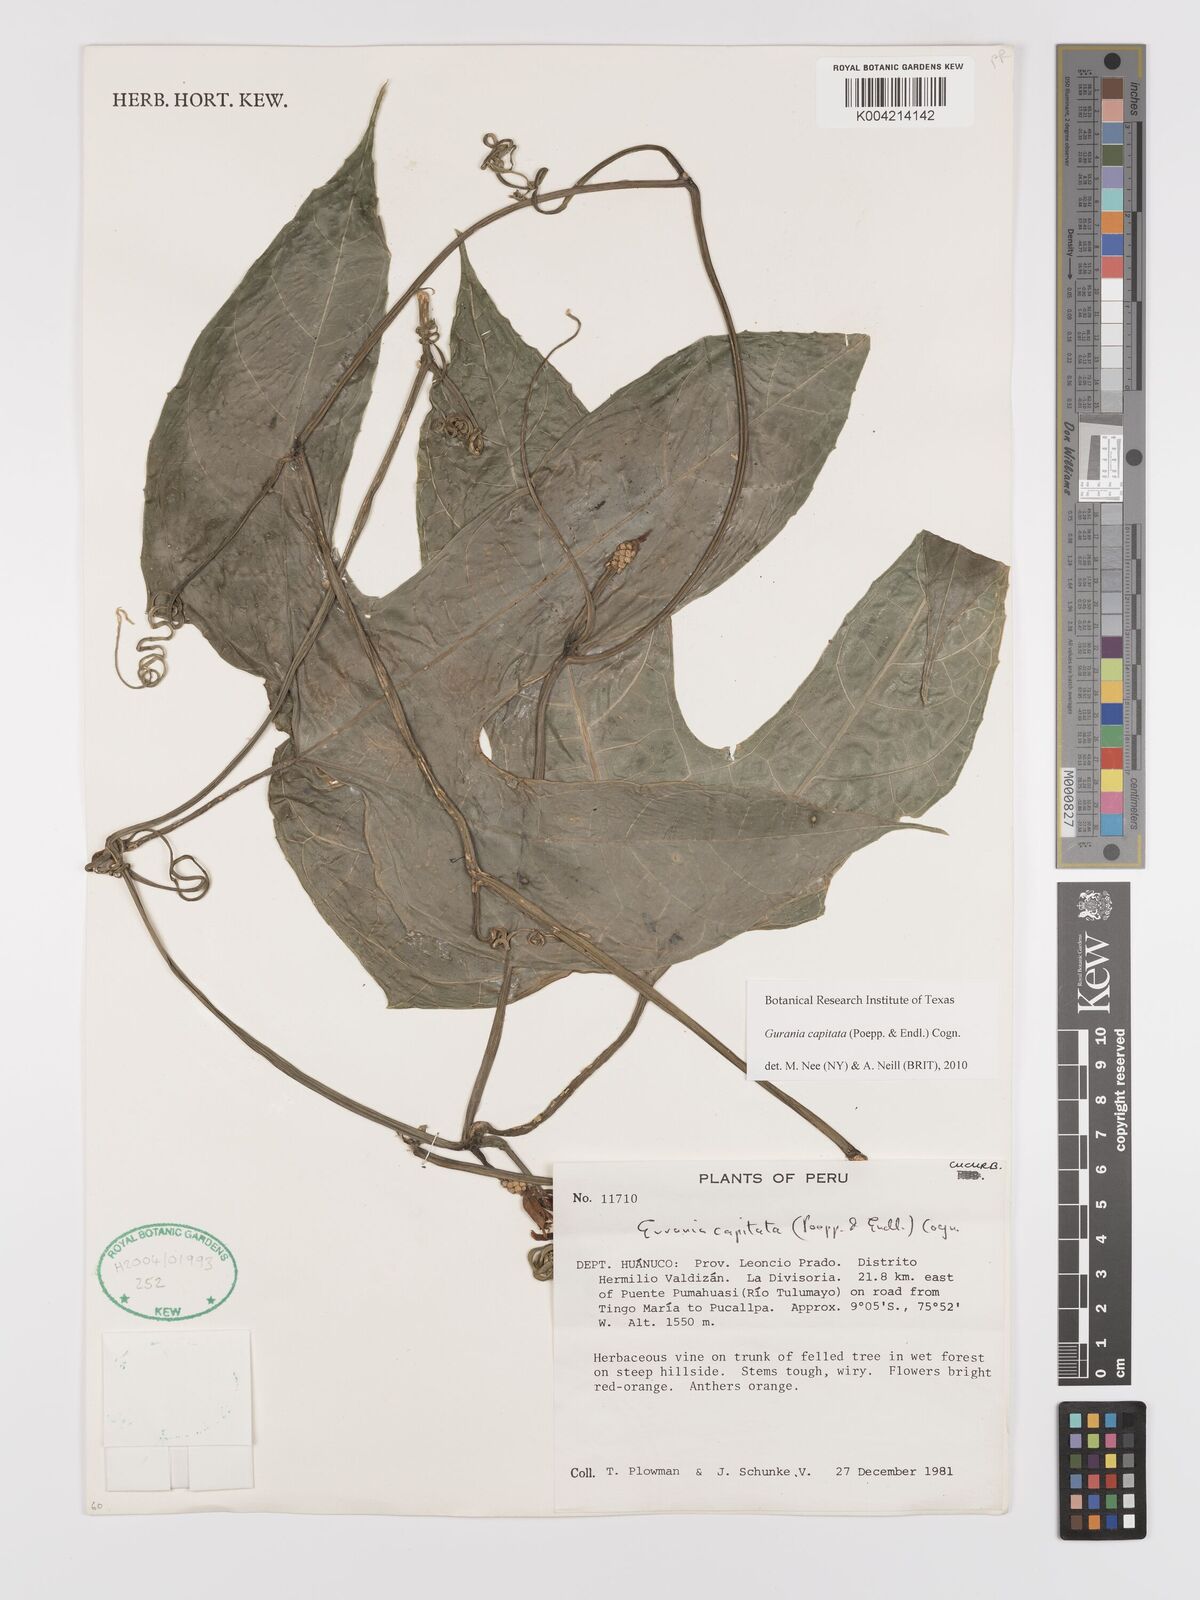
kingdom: Plantae
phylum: Tracheophyta
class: Magnoliopsida
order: Cucurbitales
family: Cucurbitaceae
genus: Gurania
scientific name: Gurania capitata
